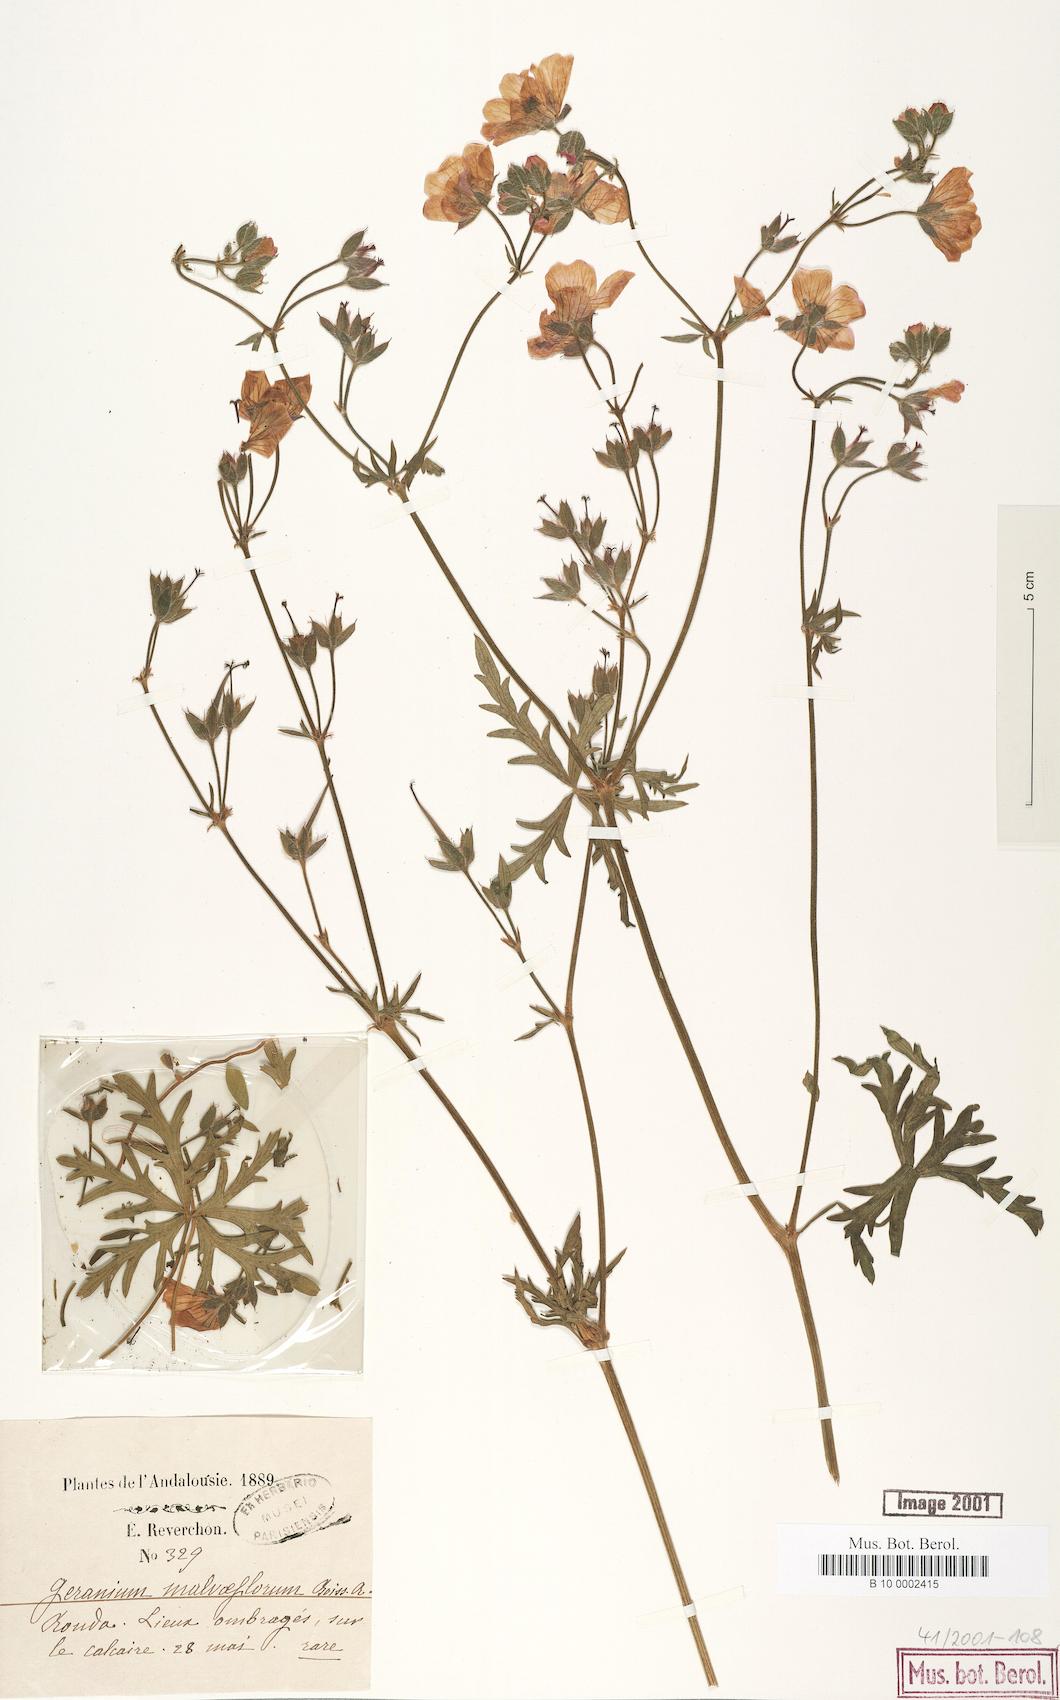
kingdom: Plantae
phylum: Tracheophyta
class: Magnoliopsida
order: Geraniales
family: Geraniaceae
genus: Geranium
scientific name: Geranium malviflorum
